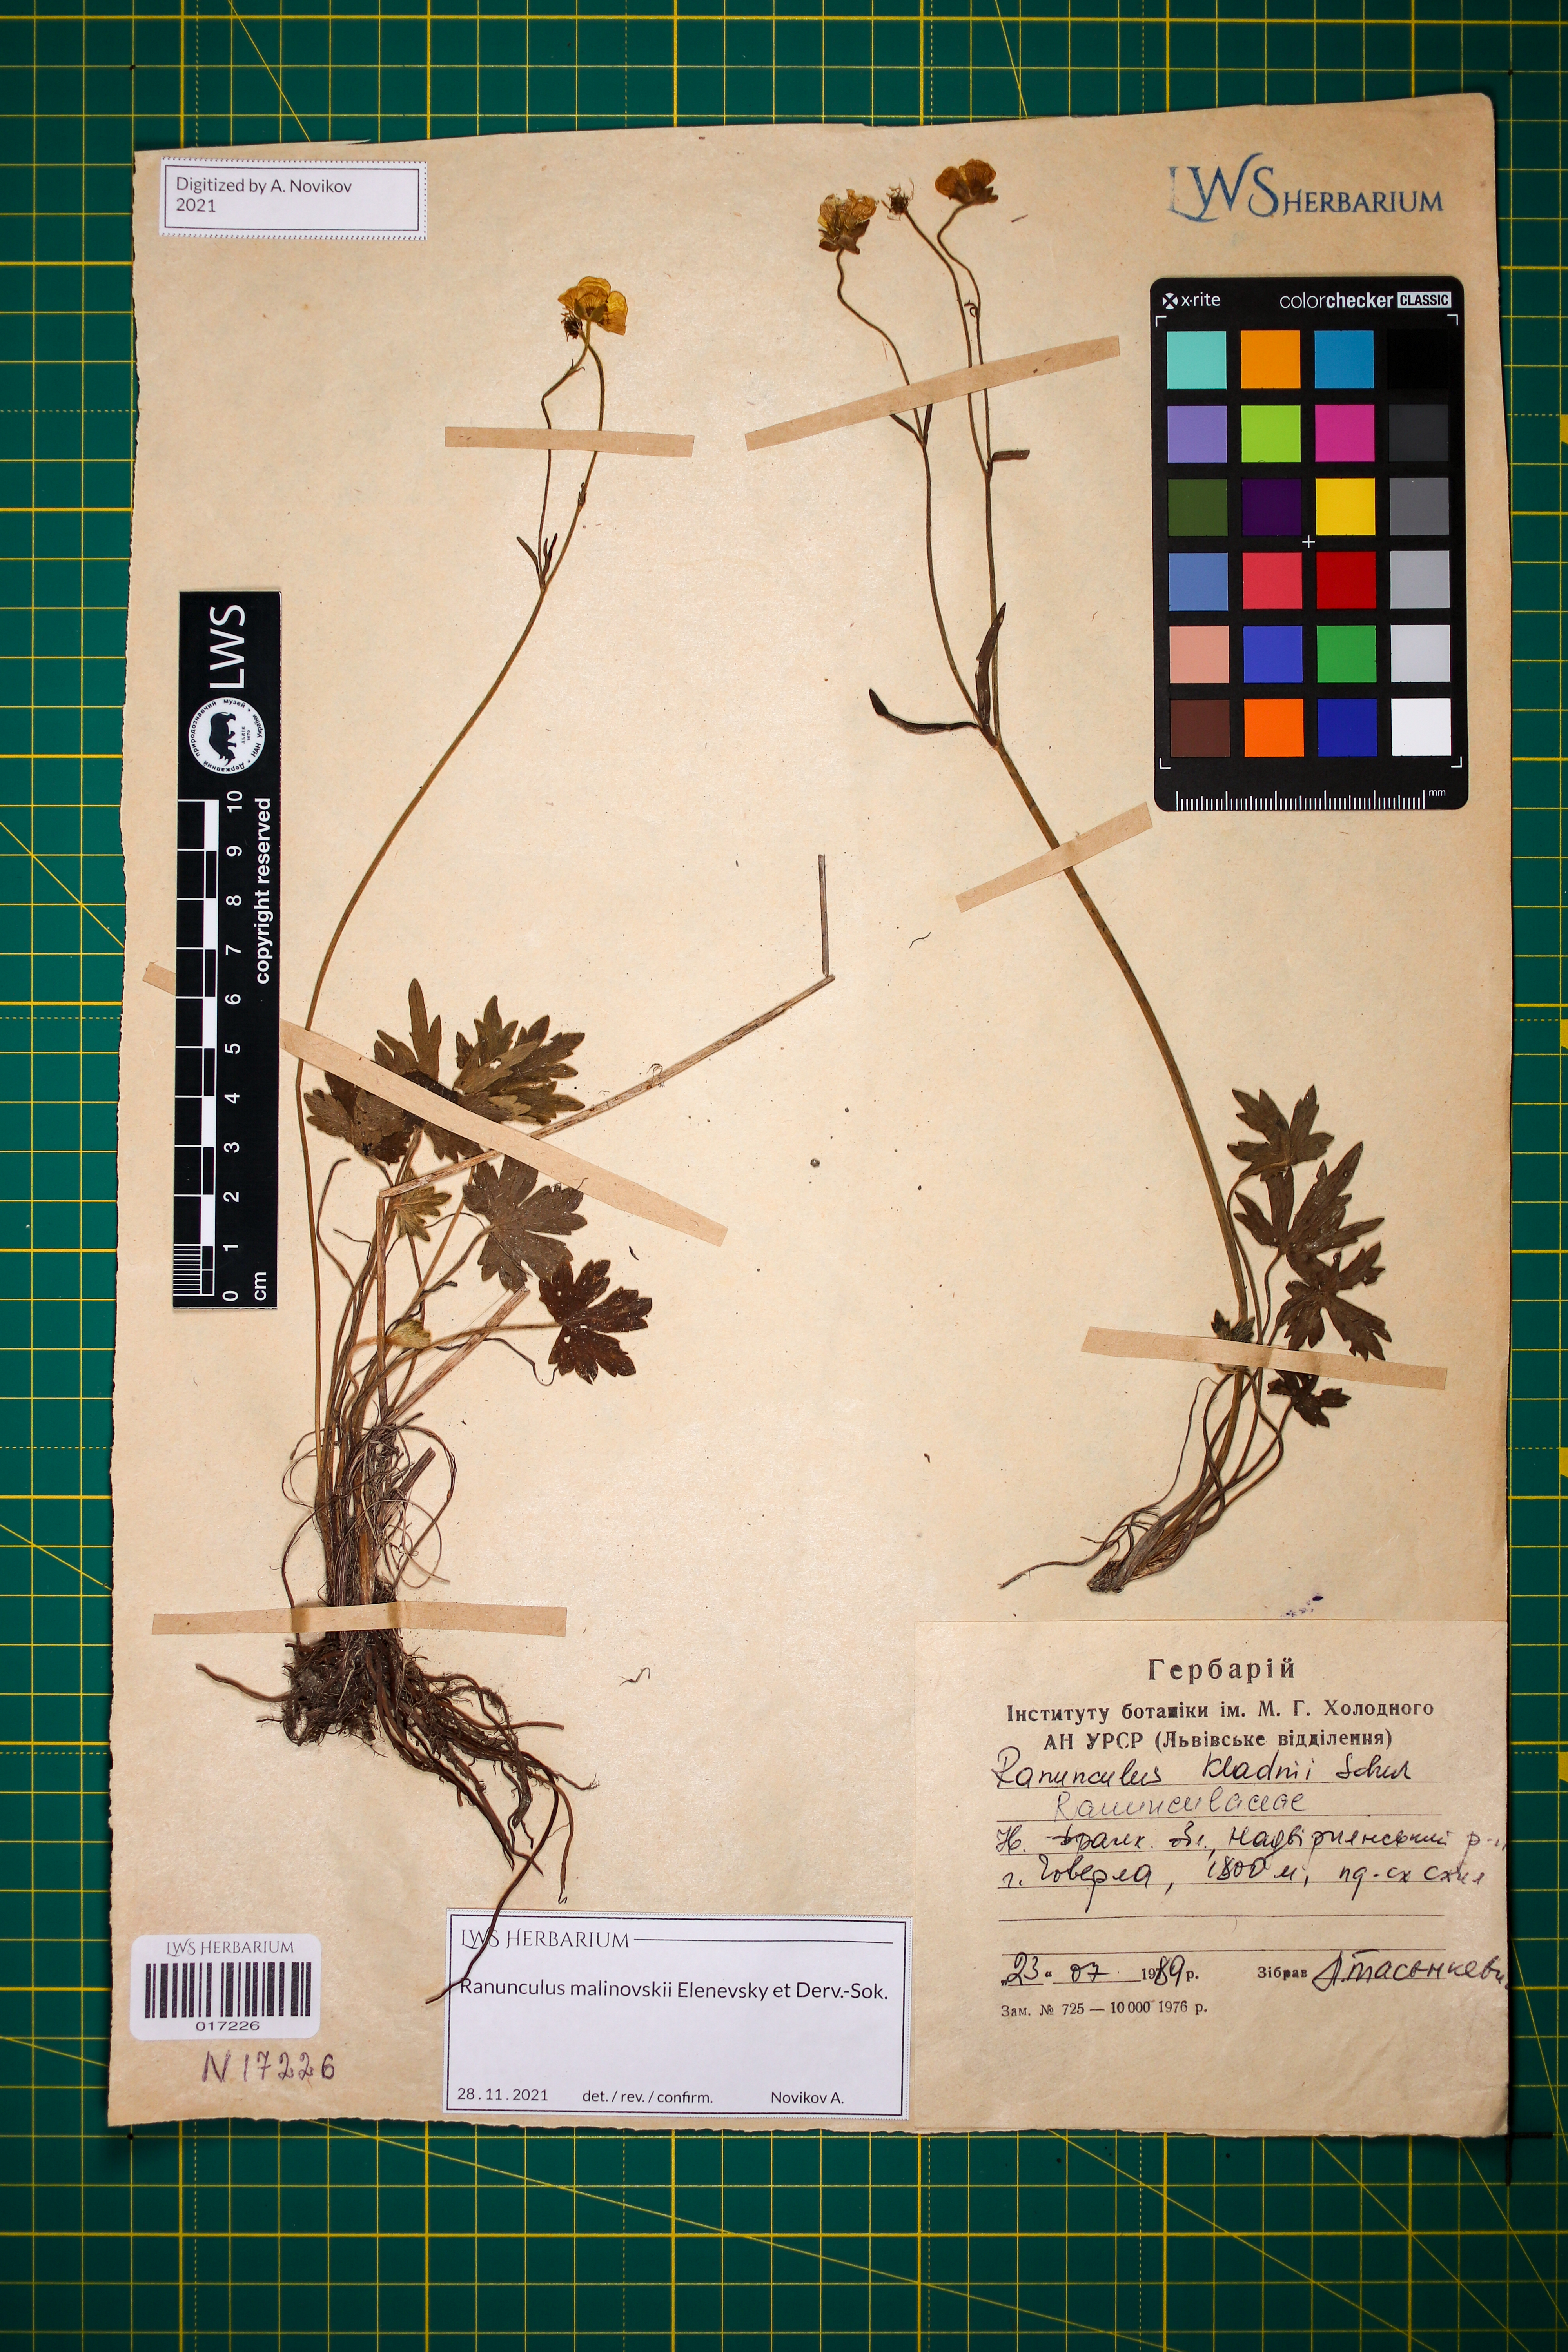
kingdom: Plantae
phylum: Tracheophyta
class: Magnoliopsida
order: Ranunculales
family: Ranunculaceae
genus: Ranunculus
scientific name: Ranunculus malinovskii
